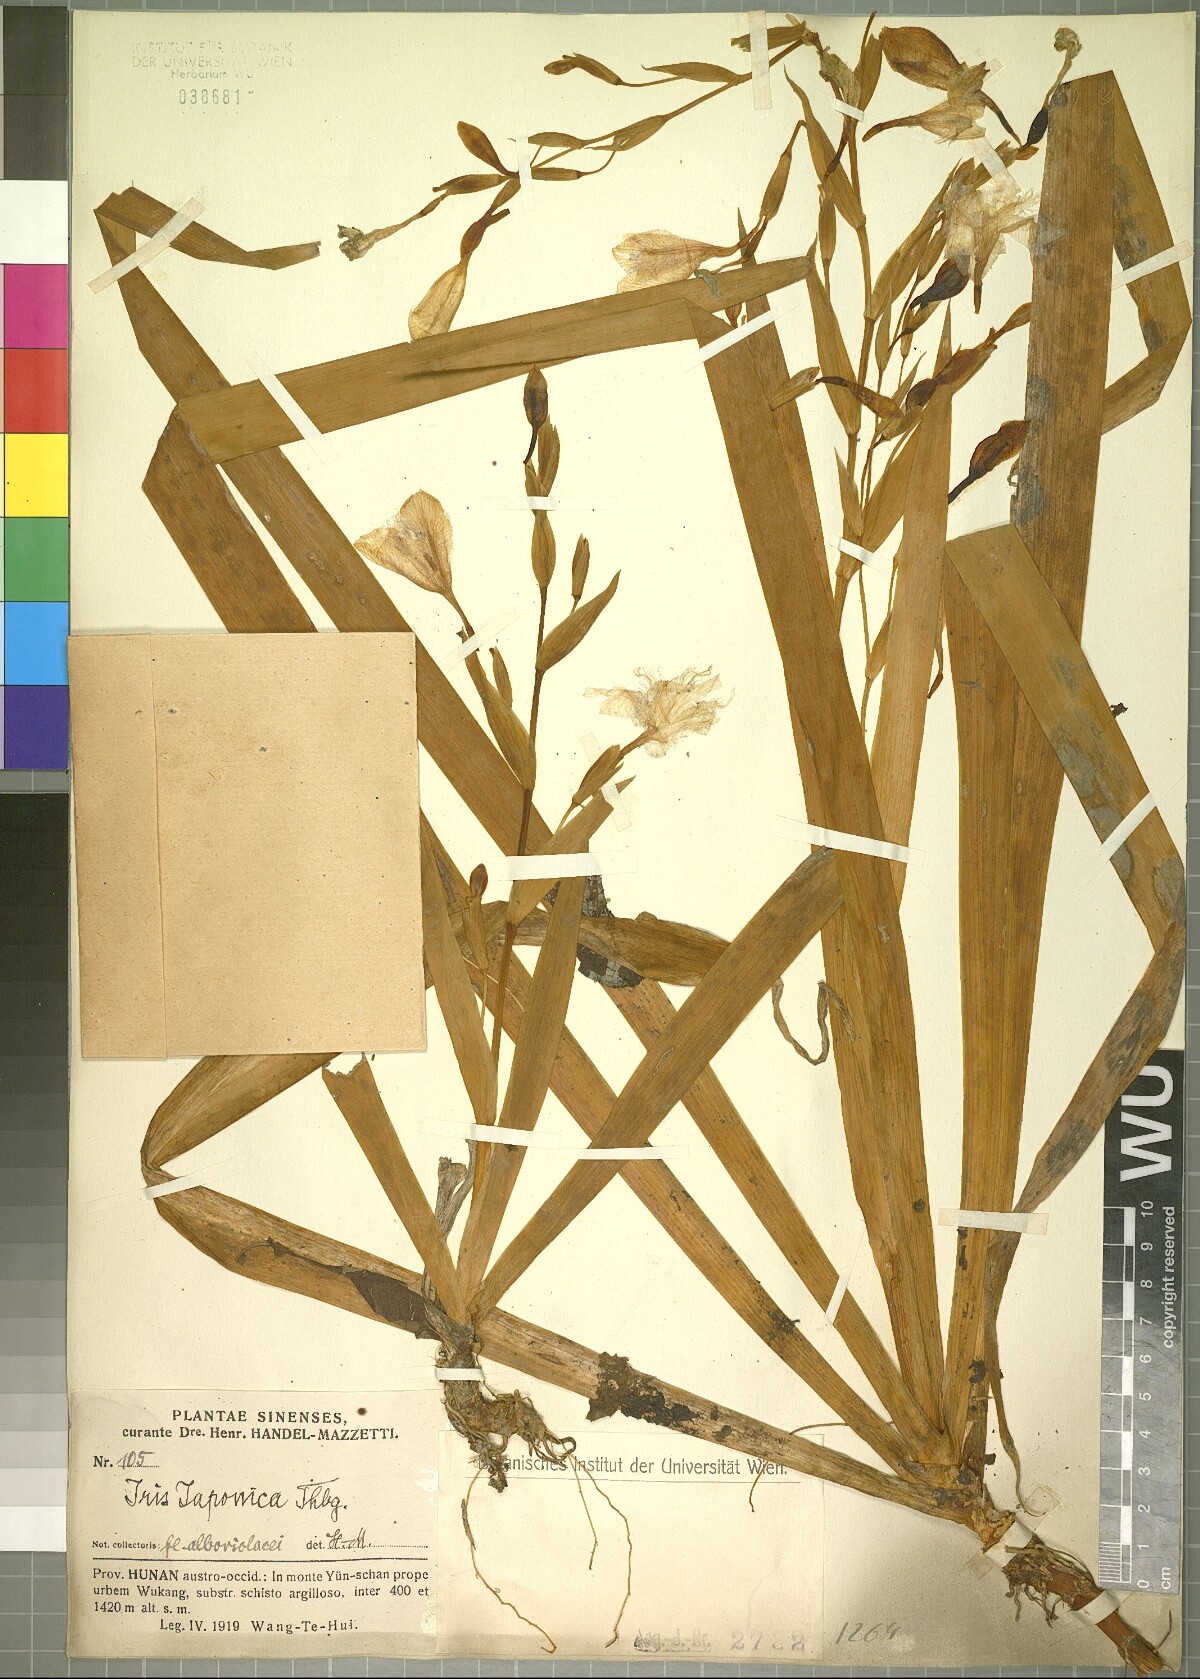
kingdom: Plantae
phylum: Tracheophyta
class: Liliopsida
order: Asparagales
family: Iridaceae
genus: Iris
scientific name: Iris japonica
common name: Butterfly-flower
